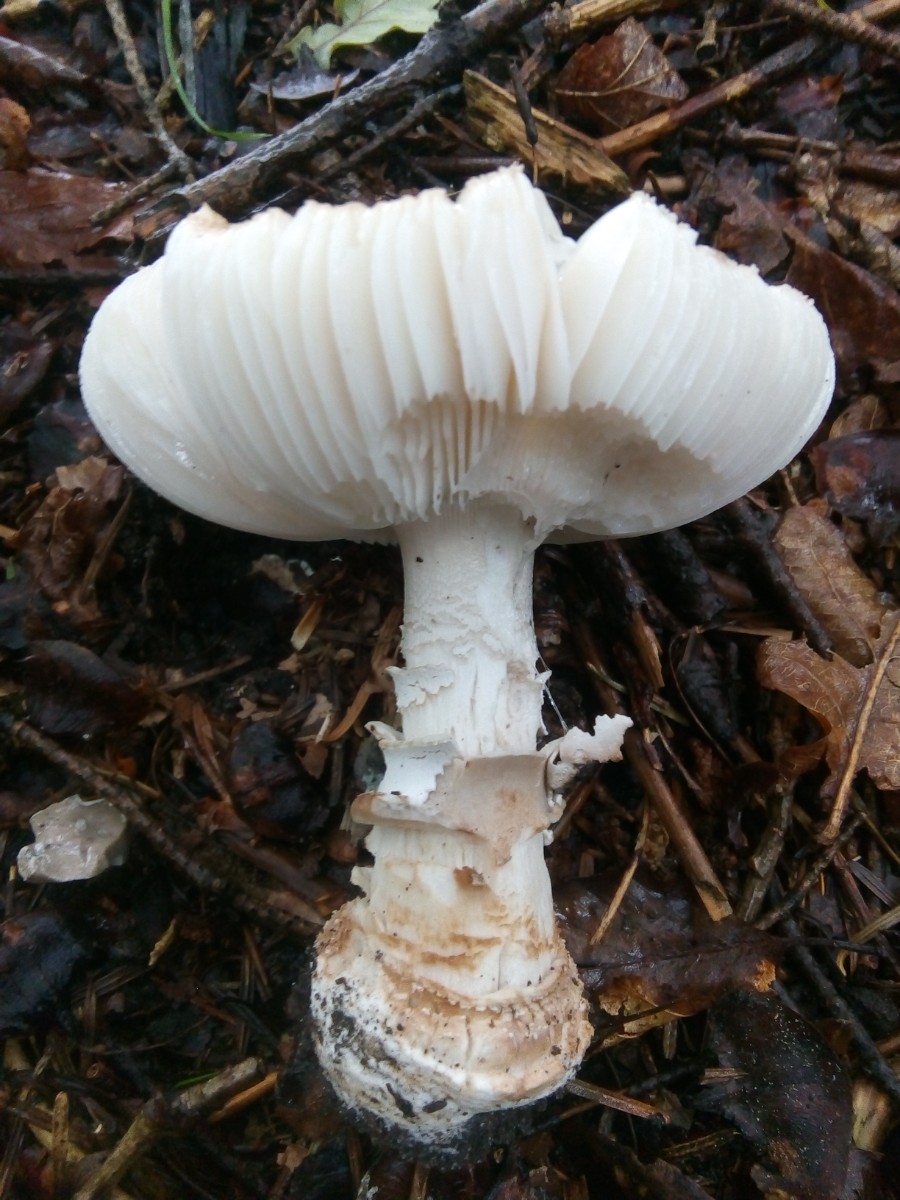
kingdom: Fungi
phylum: Basidiomycota
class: Agaricomycetes
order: Agaricales
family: Amanitaceae
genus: Amanita
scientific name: Amanita
